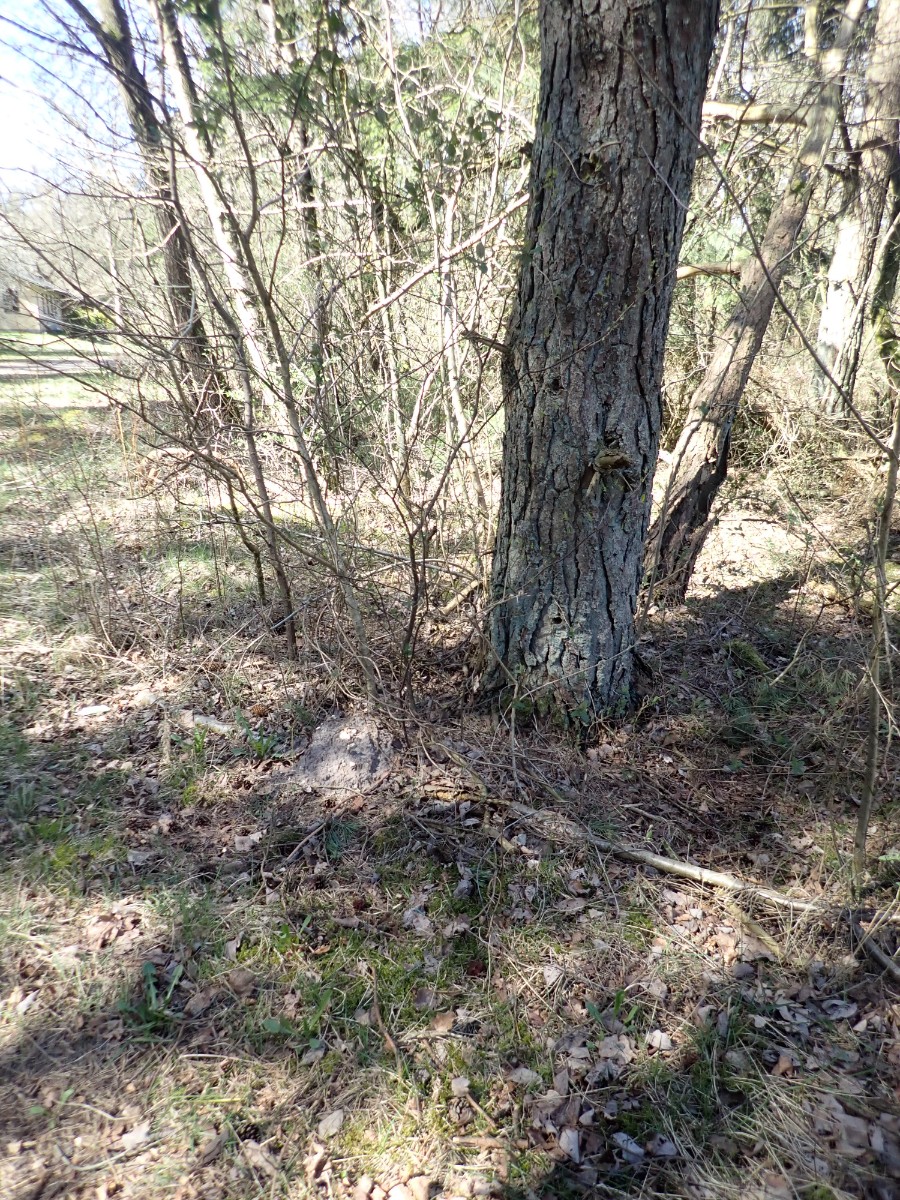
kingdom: Fungi
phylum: Ascomycota
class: Pezizomycetes
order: Pezizales
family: Discinaceae
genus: Gyromitra
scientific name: Gyromitra esculenta
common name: ægte stenmorkel
